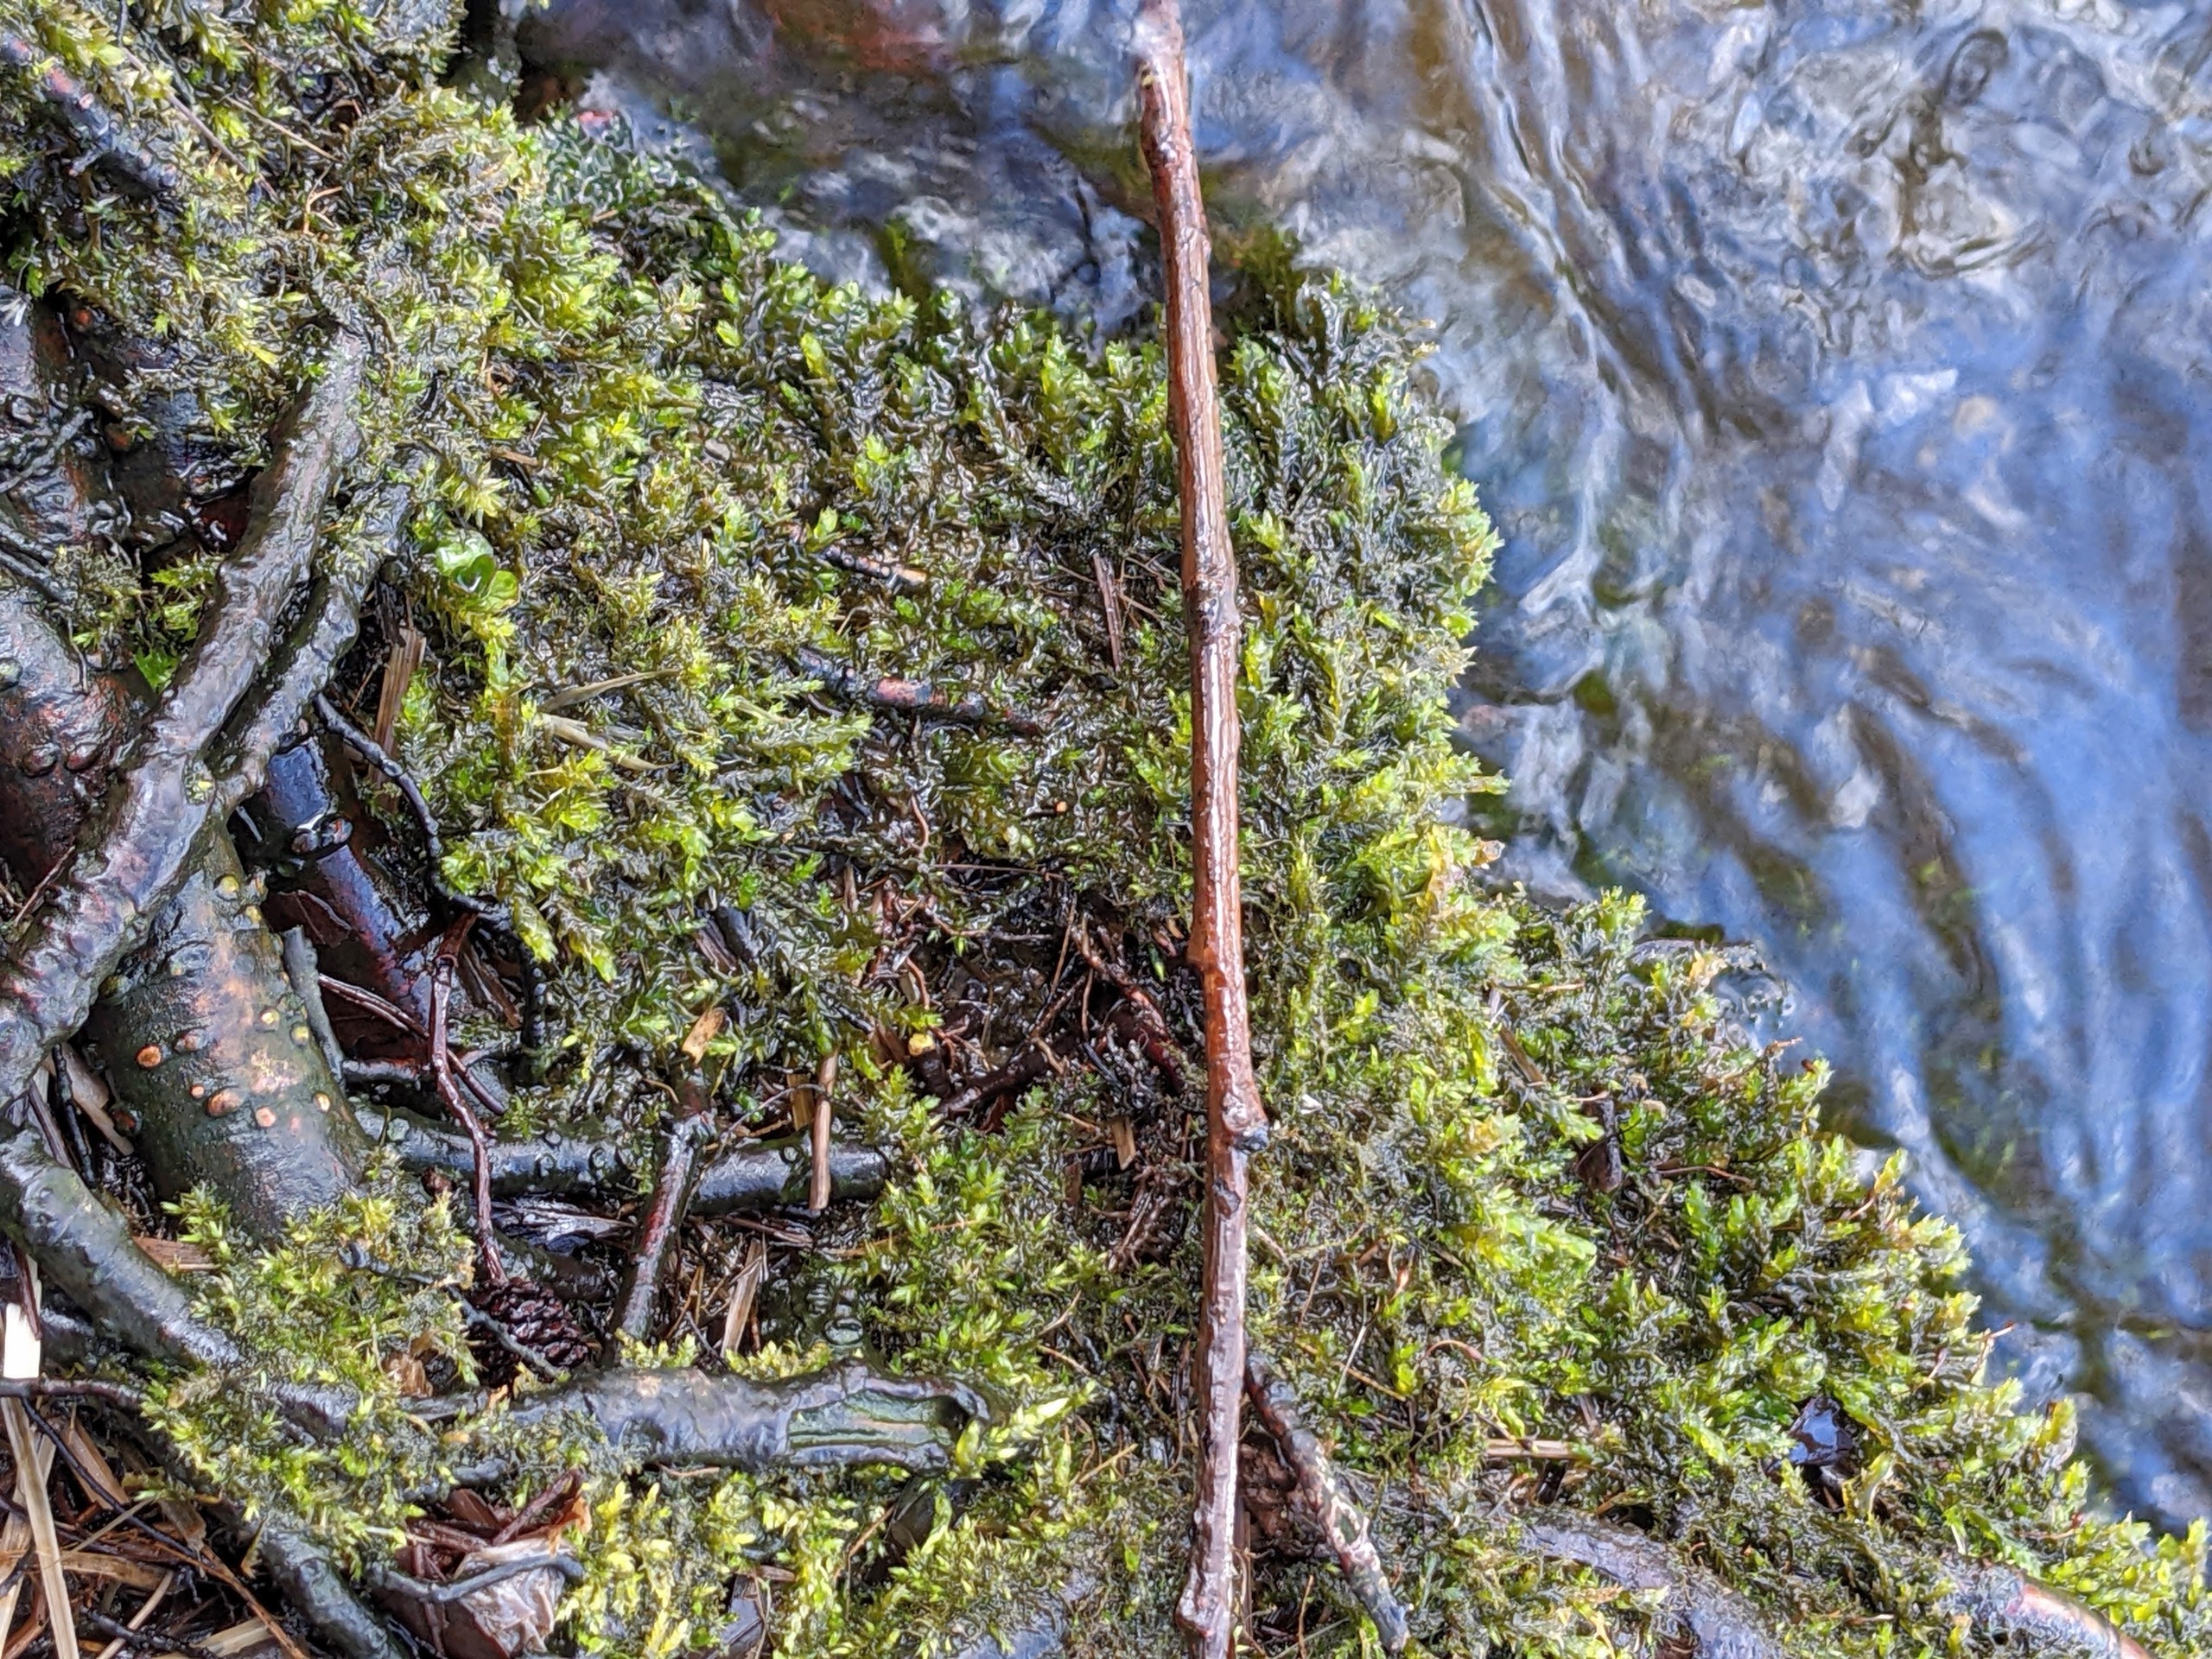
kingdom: Plantae
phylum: Bryophyta
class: Bryopsida
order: Hypnales
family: Brachytheciaceae
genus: Rhynchostegium
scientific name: Rhynchostegium riparioides
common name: Robust strømmos
